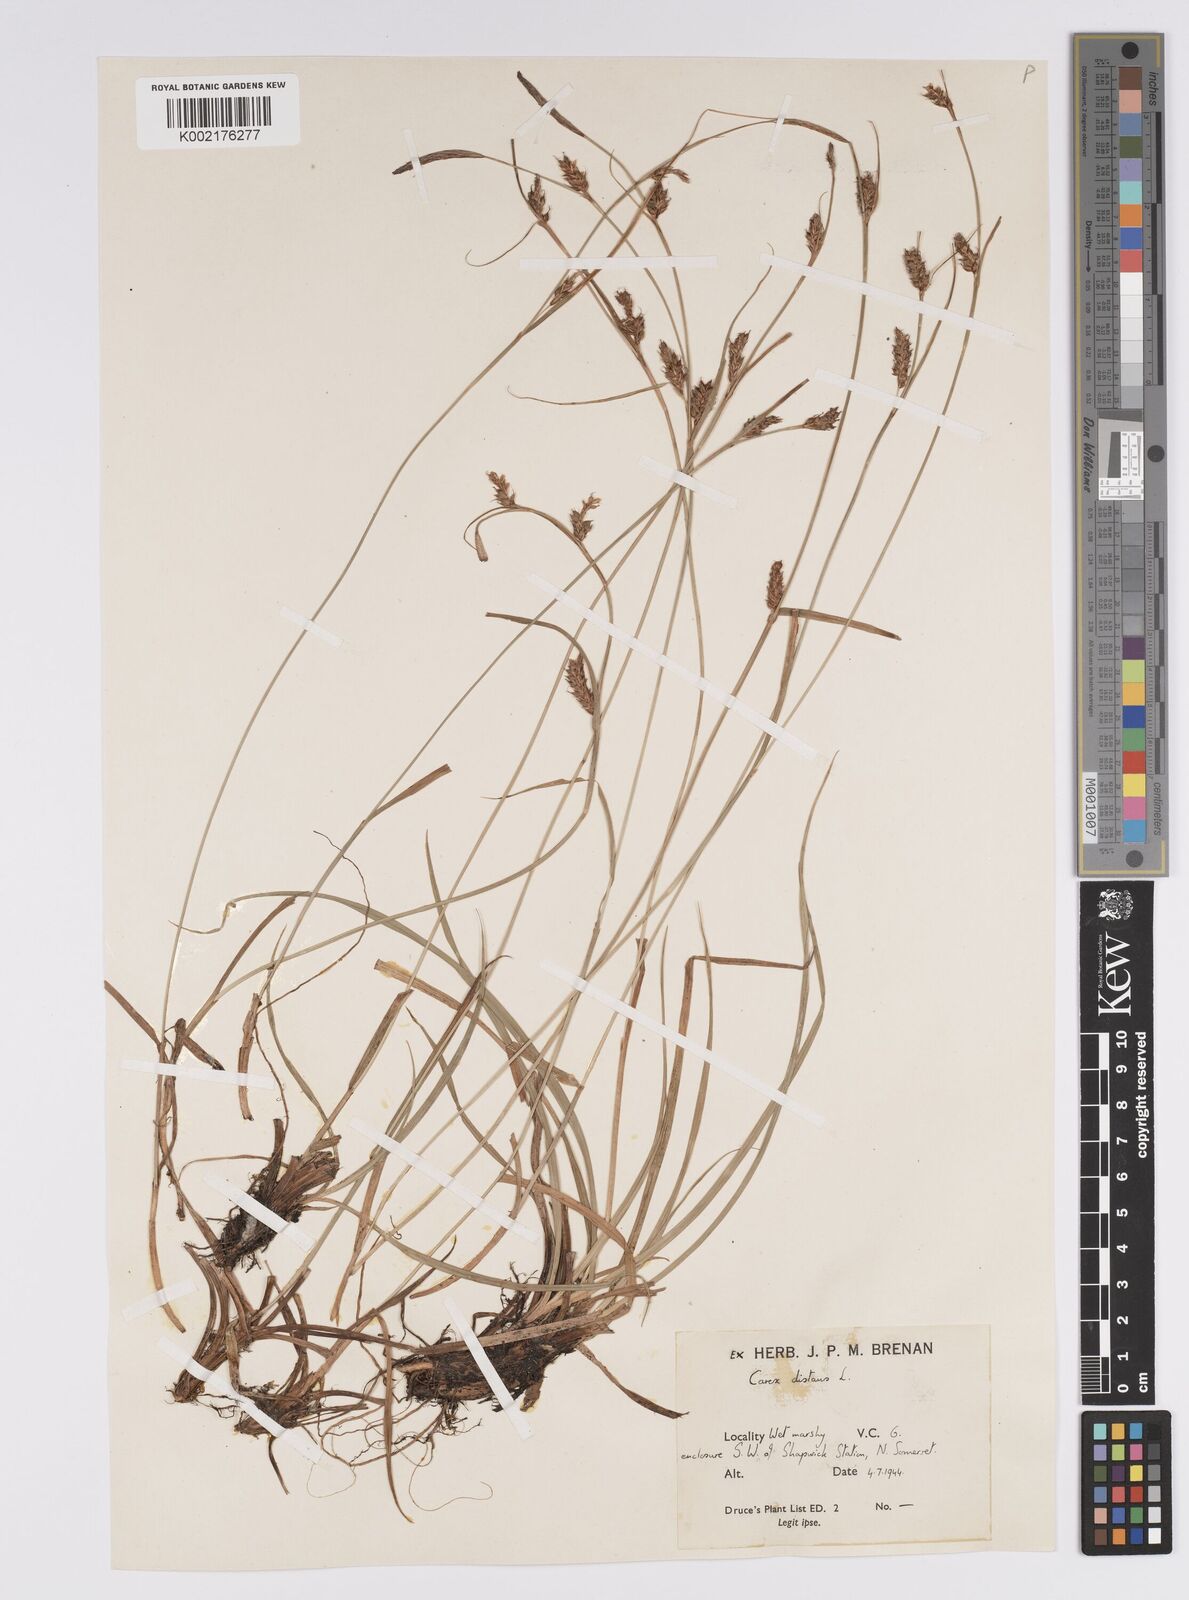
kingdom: Plantae
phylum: Tracheophyta
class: Liliopsida
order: Poales
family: Cyperaceae
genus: Carex
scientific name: Carex distans
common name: Distant sedge
